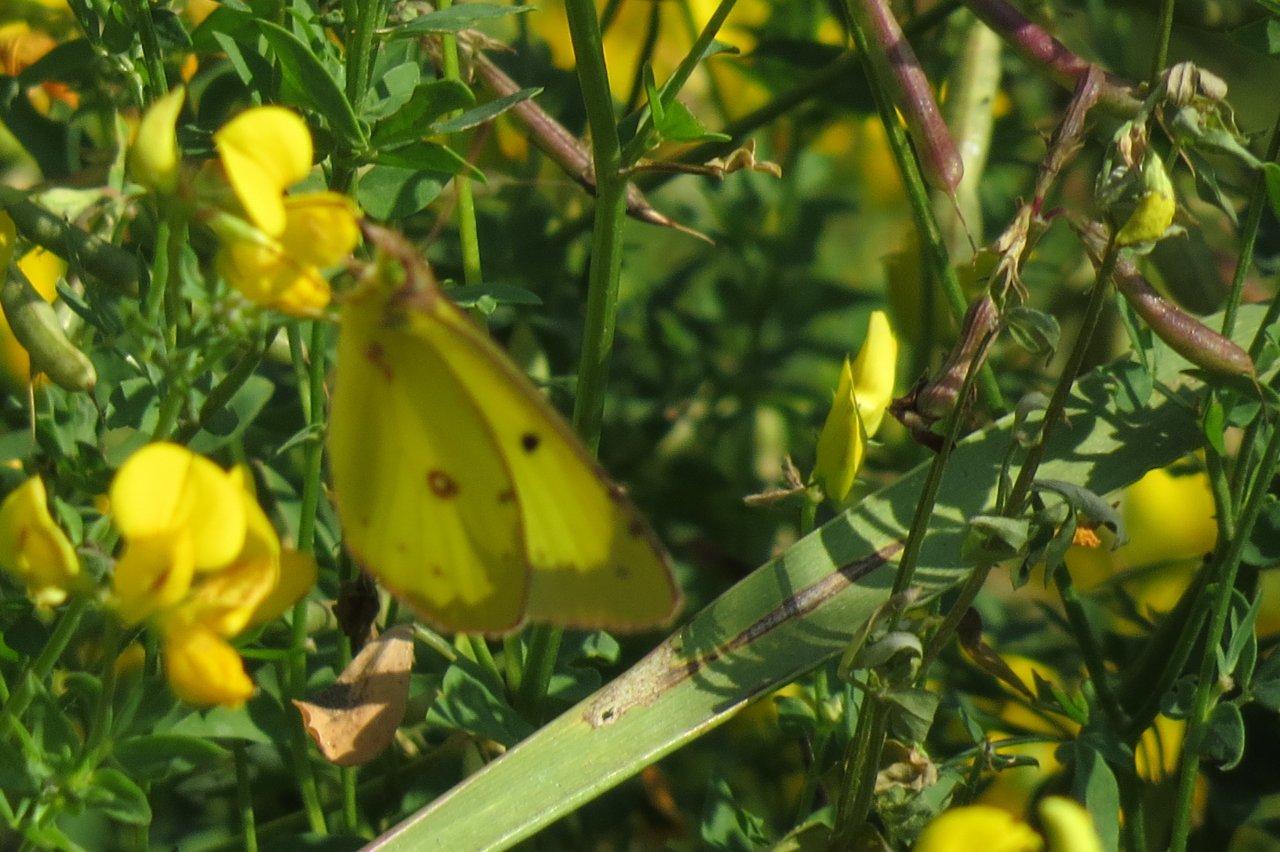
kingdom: Animalia
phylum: Arthropoda
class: Insecta
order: Lepidoptera
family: Pieridae
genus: Colias
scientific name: Colias philodice
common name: Clouded Sulphur
